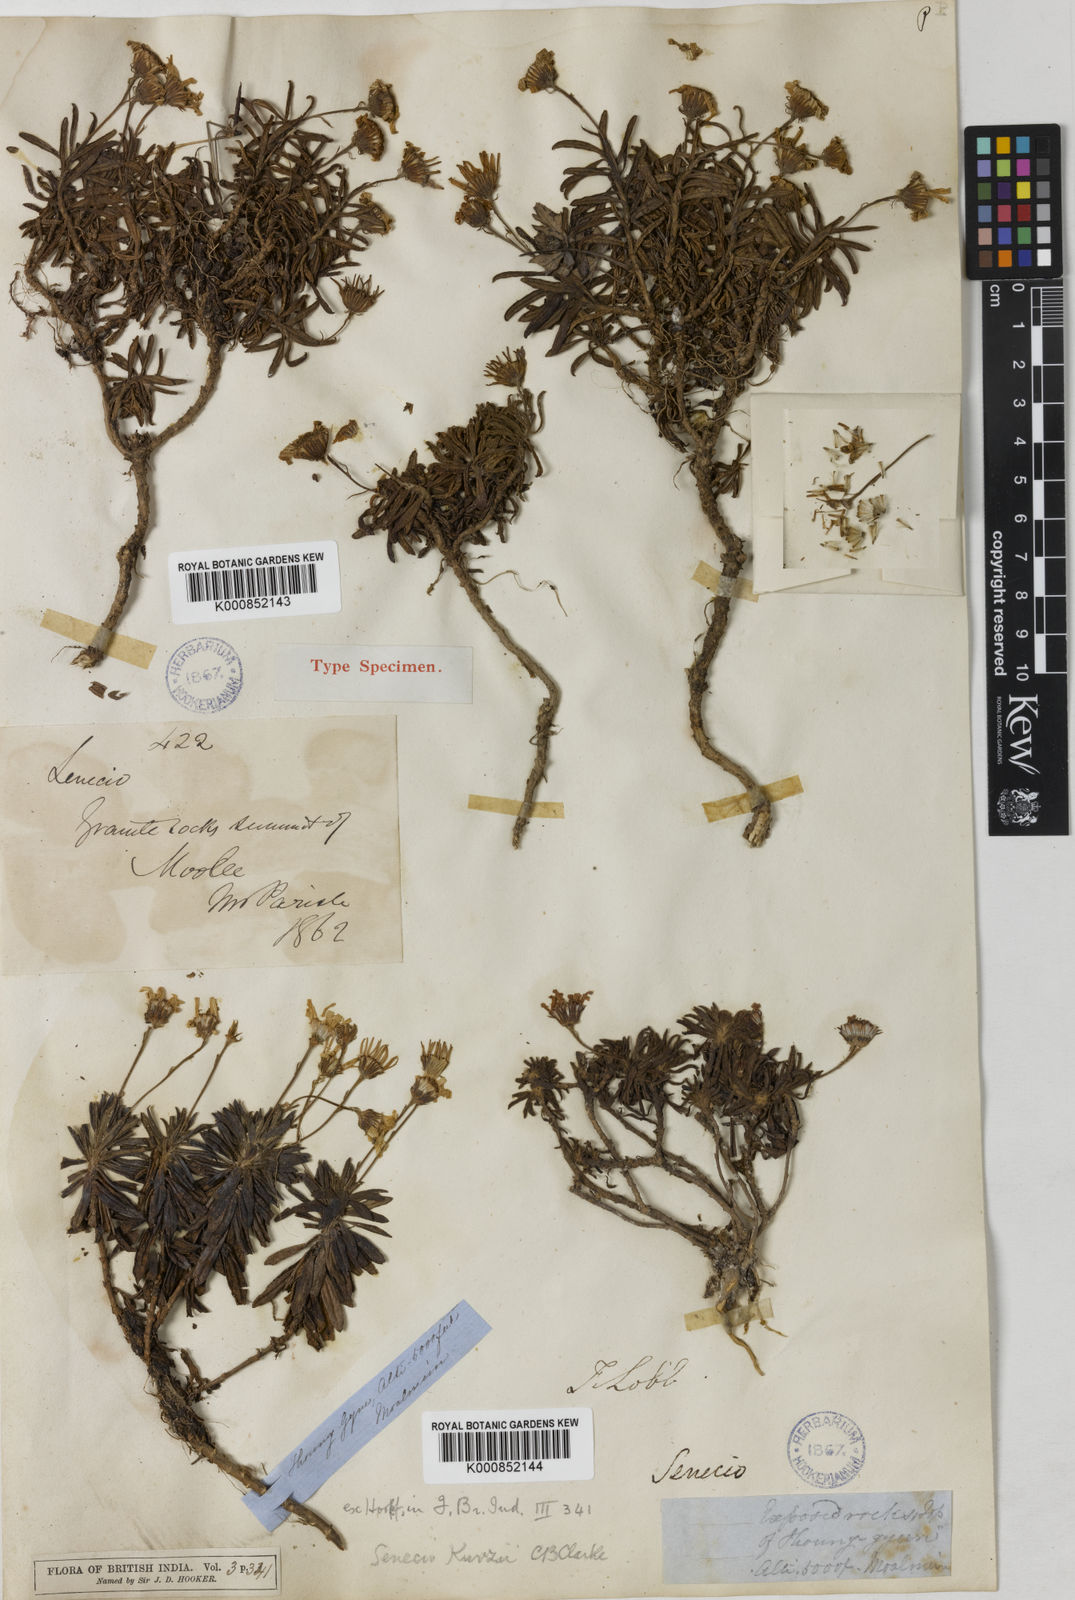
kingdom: Plantae
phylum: Tracheophyta
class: Magnoliopsida
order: Asterales
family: Asteraceae
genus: Senecio
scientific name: Senecio kurzii
